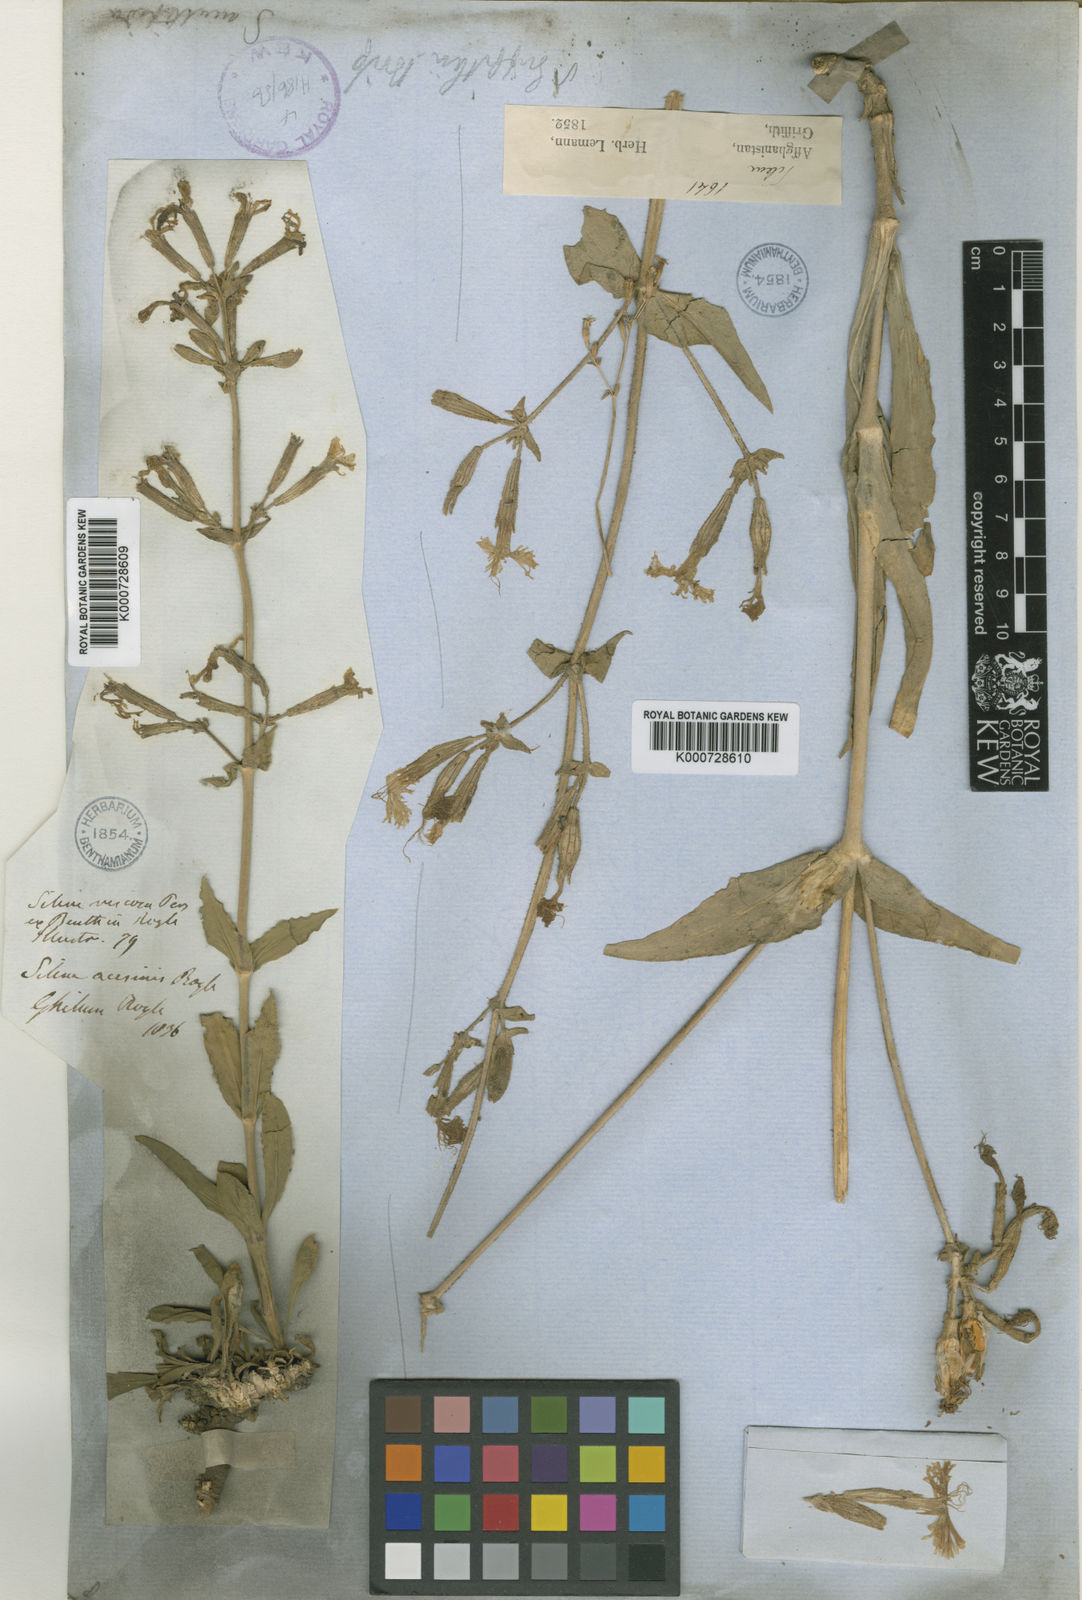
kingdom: Plantae
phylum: Tracheophyta
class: Magnoliopsida
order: Caryophyllales
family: Caryophyllaceae
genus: Silene
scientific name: Silene viscosa
